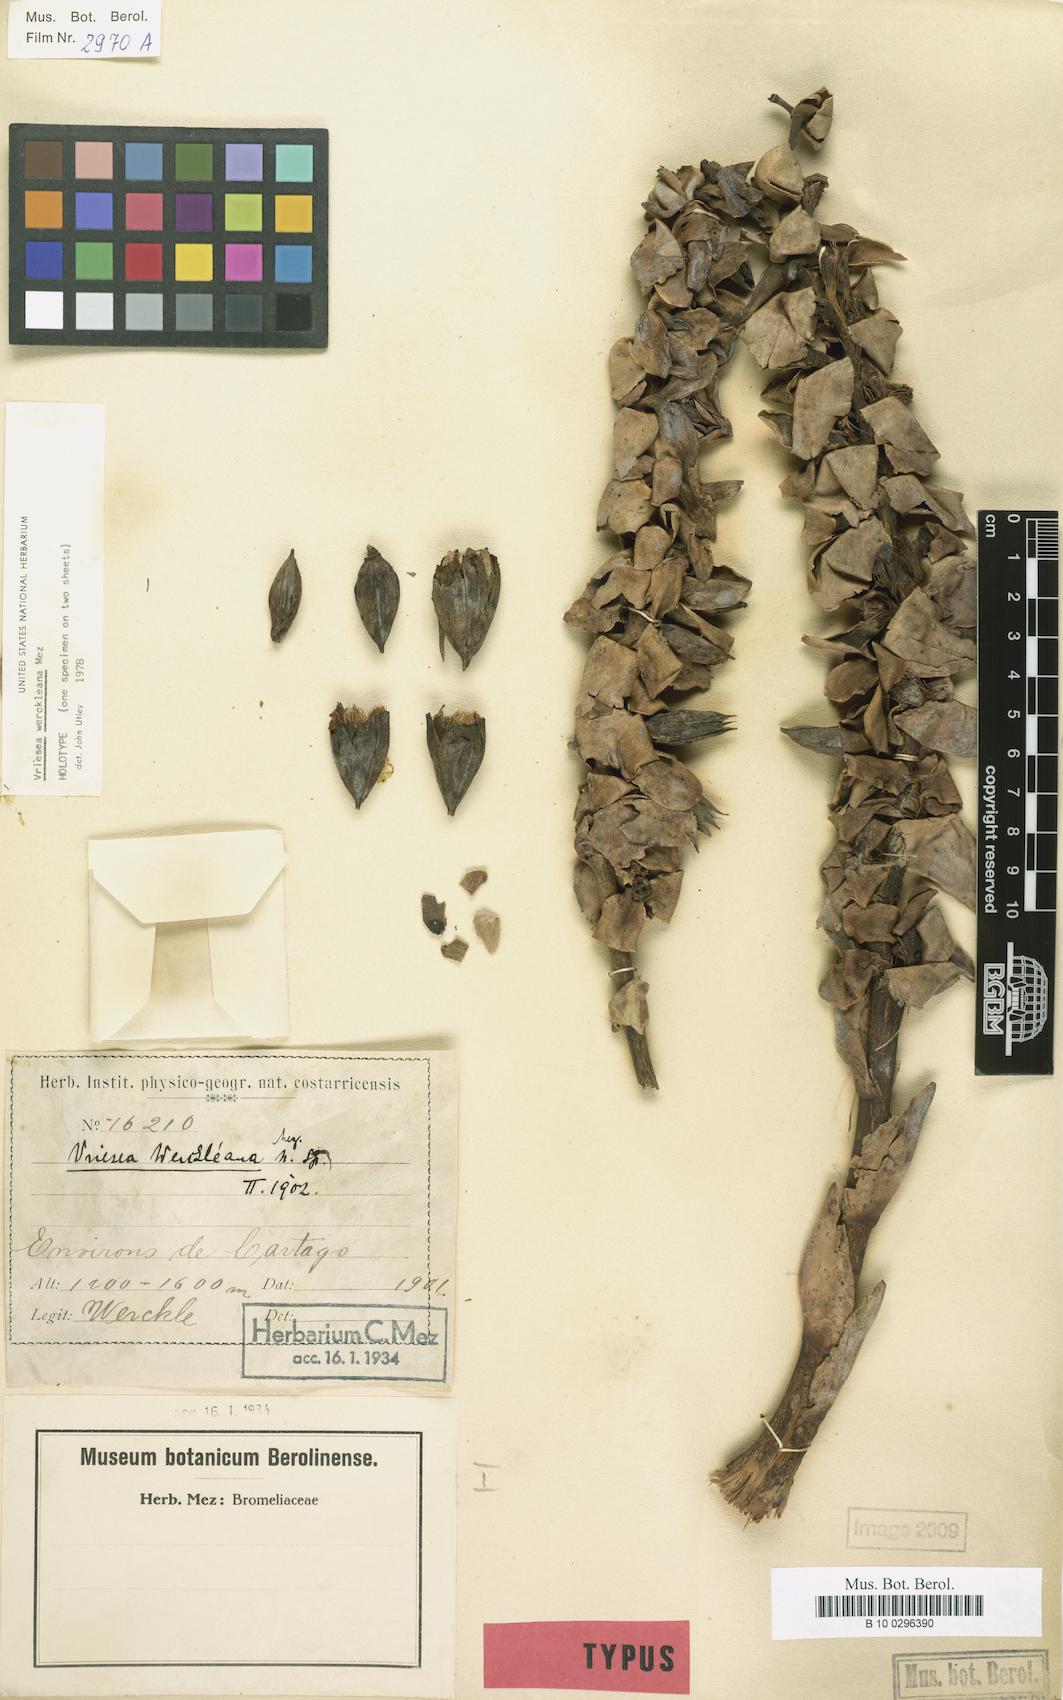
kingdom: Plantae
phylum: Tracheophyta
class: Liliopsida
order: Poales
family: Bromeliaceae
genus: Werauhia
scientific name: Werauhia werckleana
